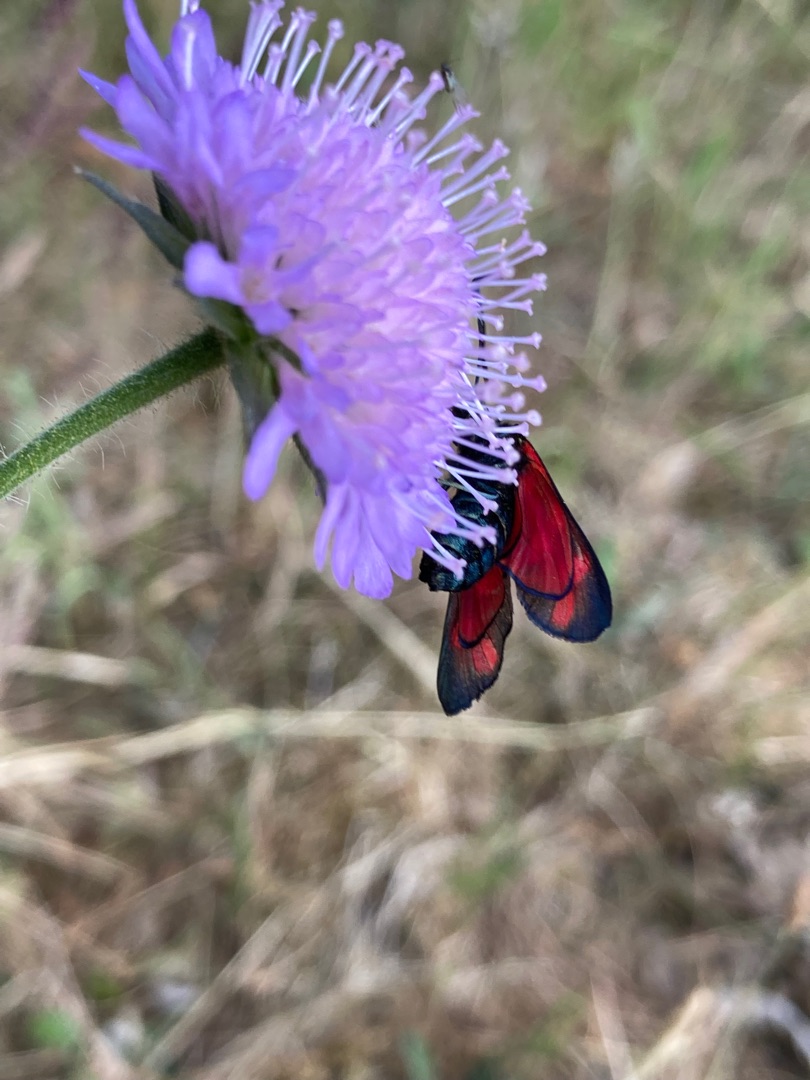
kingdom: Animalia
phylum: Arthropoda
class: Insecta
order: Lepidoptera
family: Zygaenidae
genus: Zygaena
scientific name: Zygaena filipendulae
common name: Seksplettet køllesværmer
